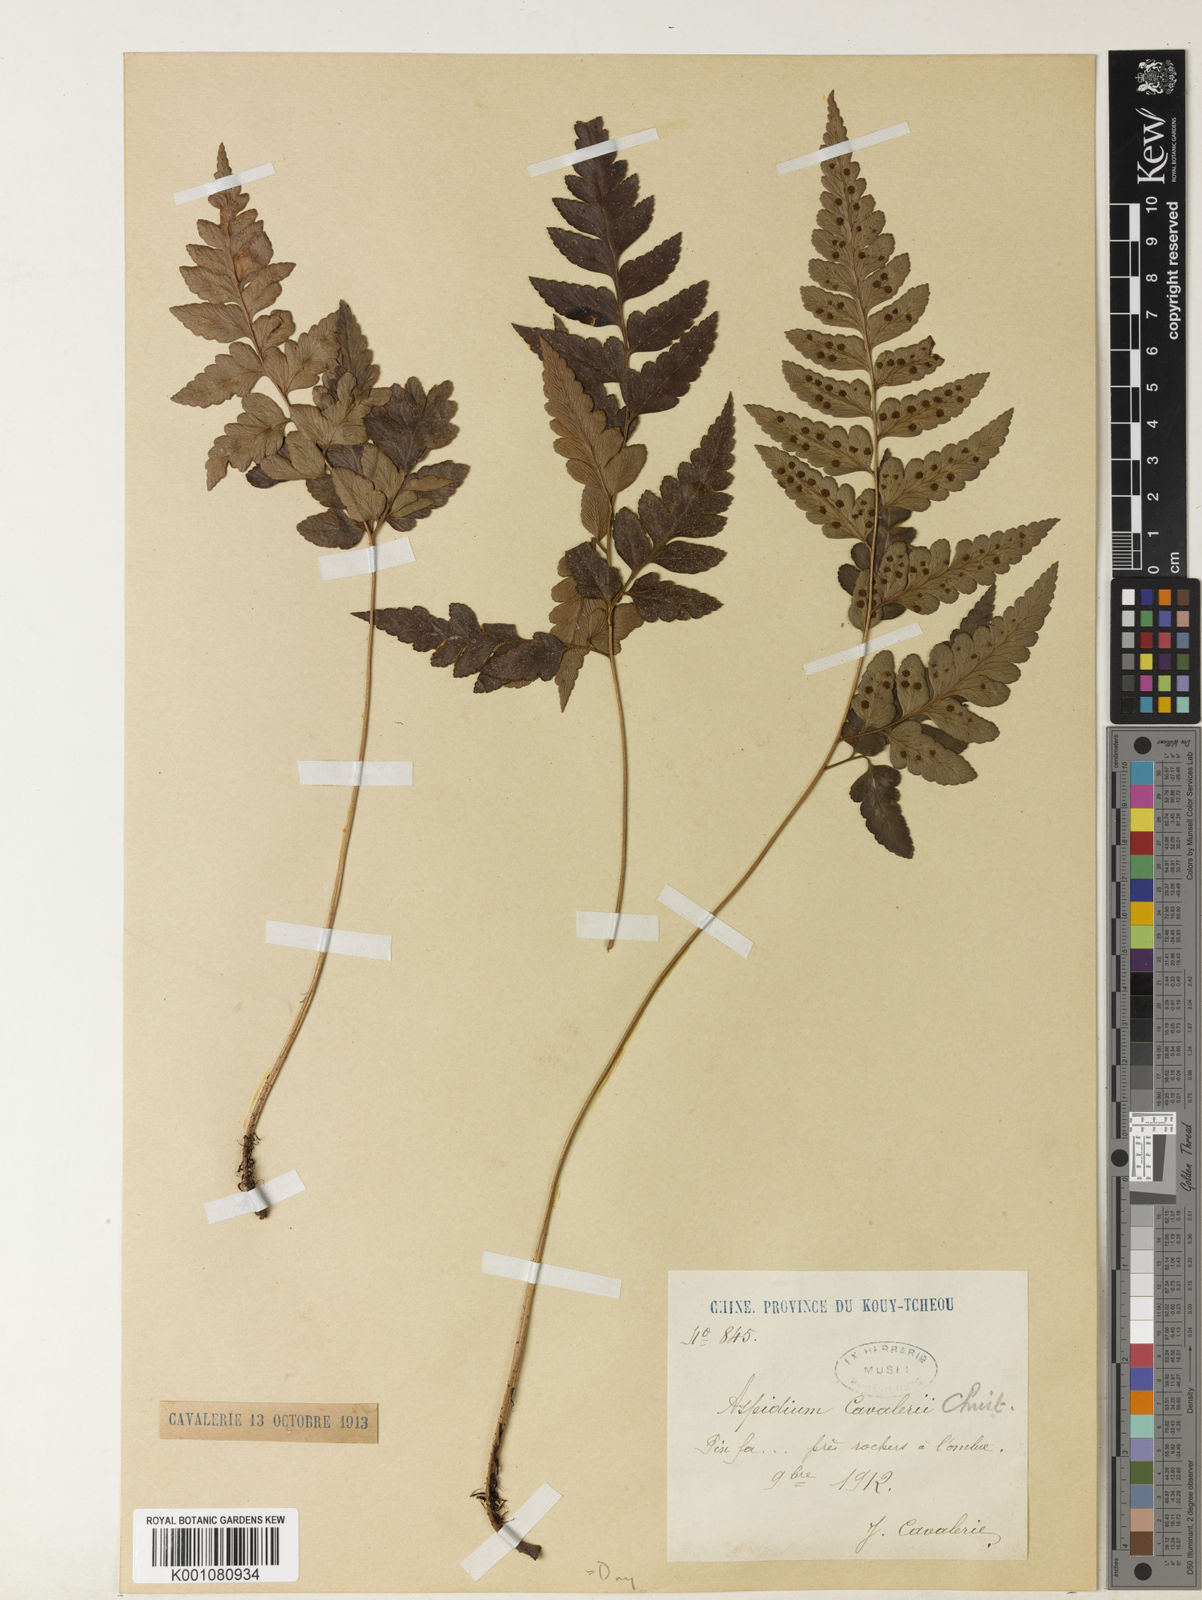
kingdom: Plantae
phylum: Tracheophyta
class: Polypodiopsida
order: Polypodiales
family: Dryopteridaceae
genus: Arachniodes
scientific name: Arachniodes cavaleriei
